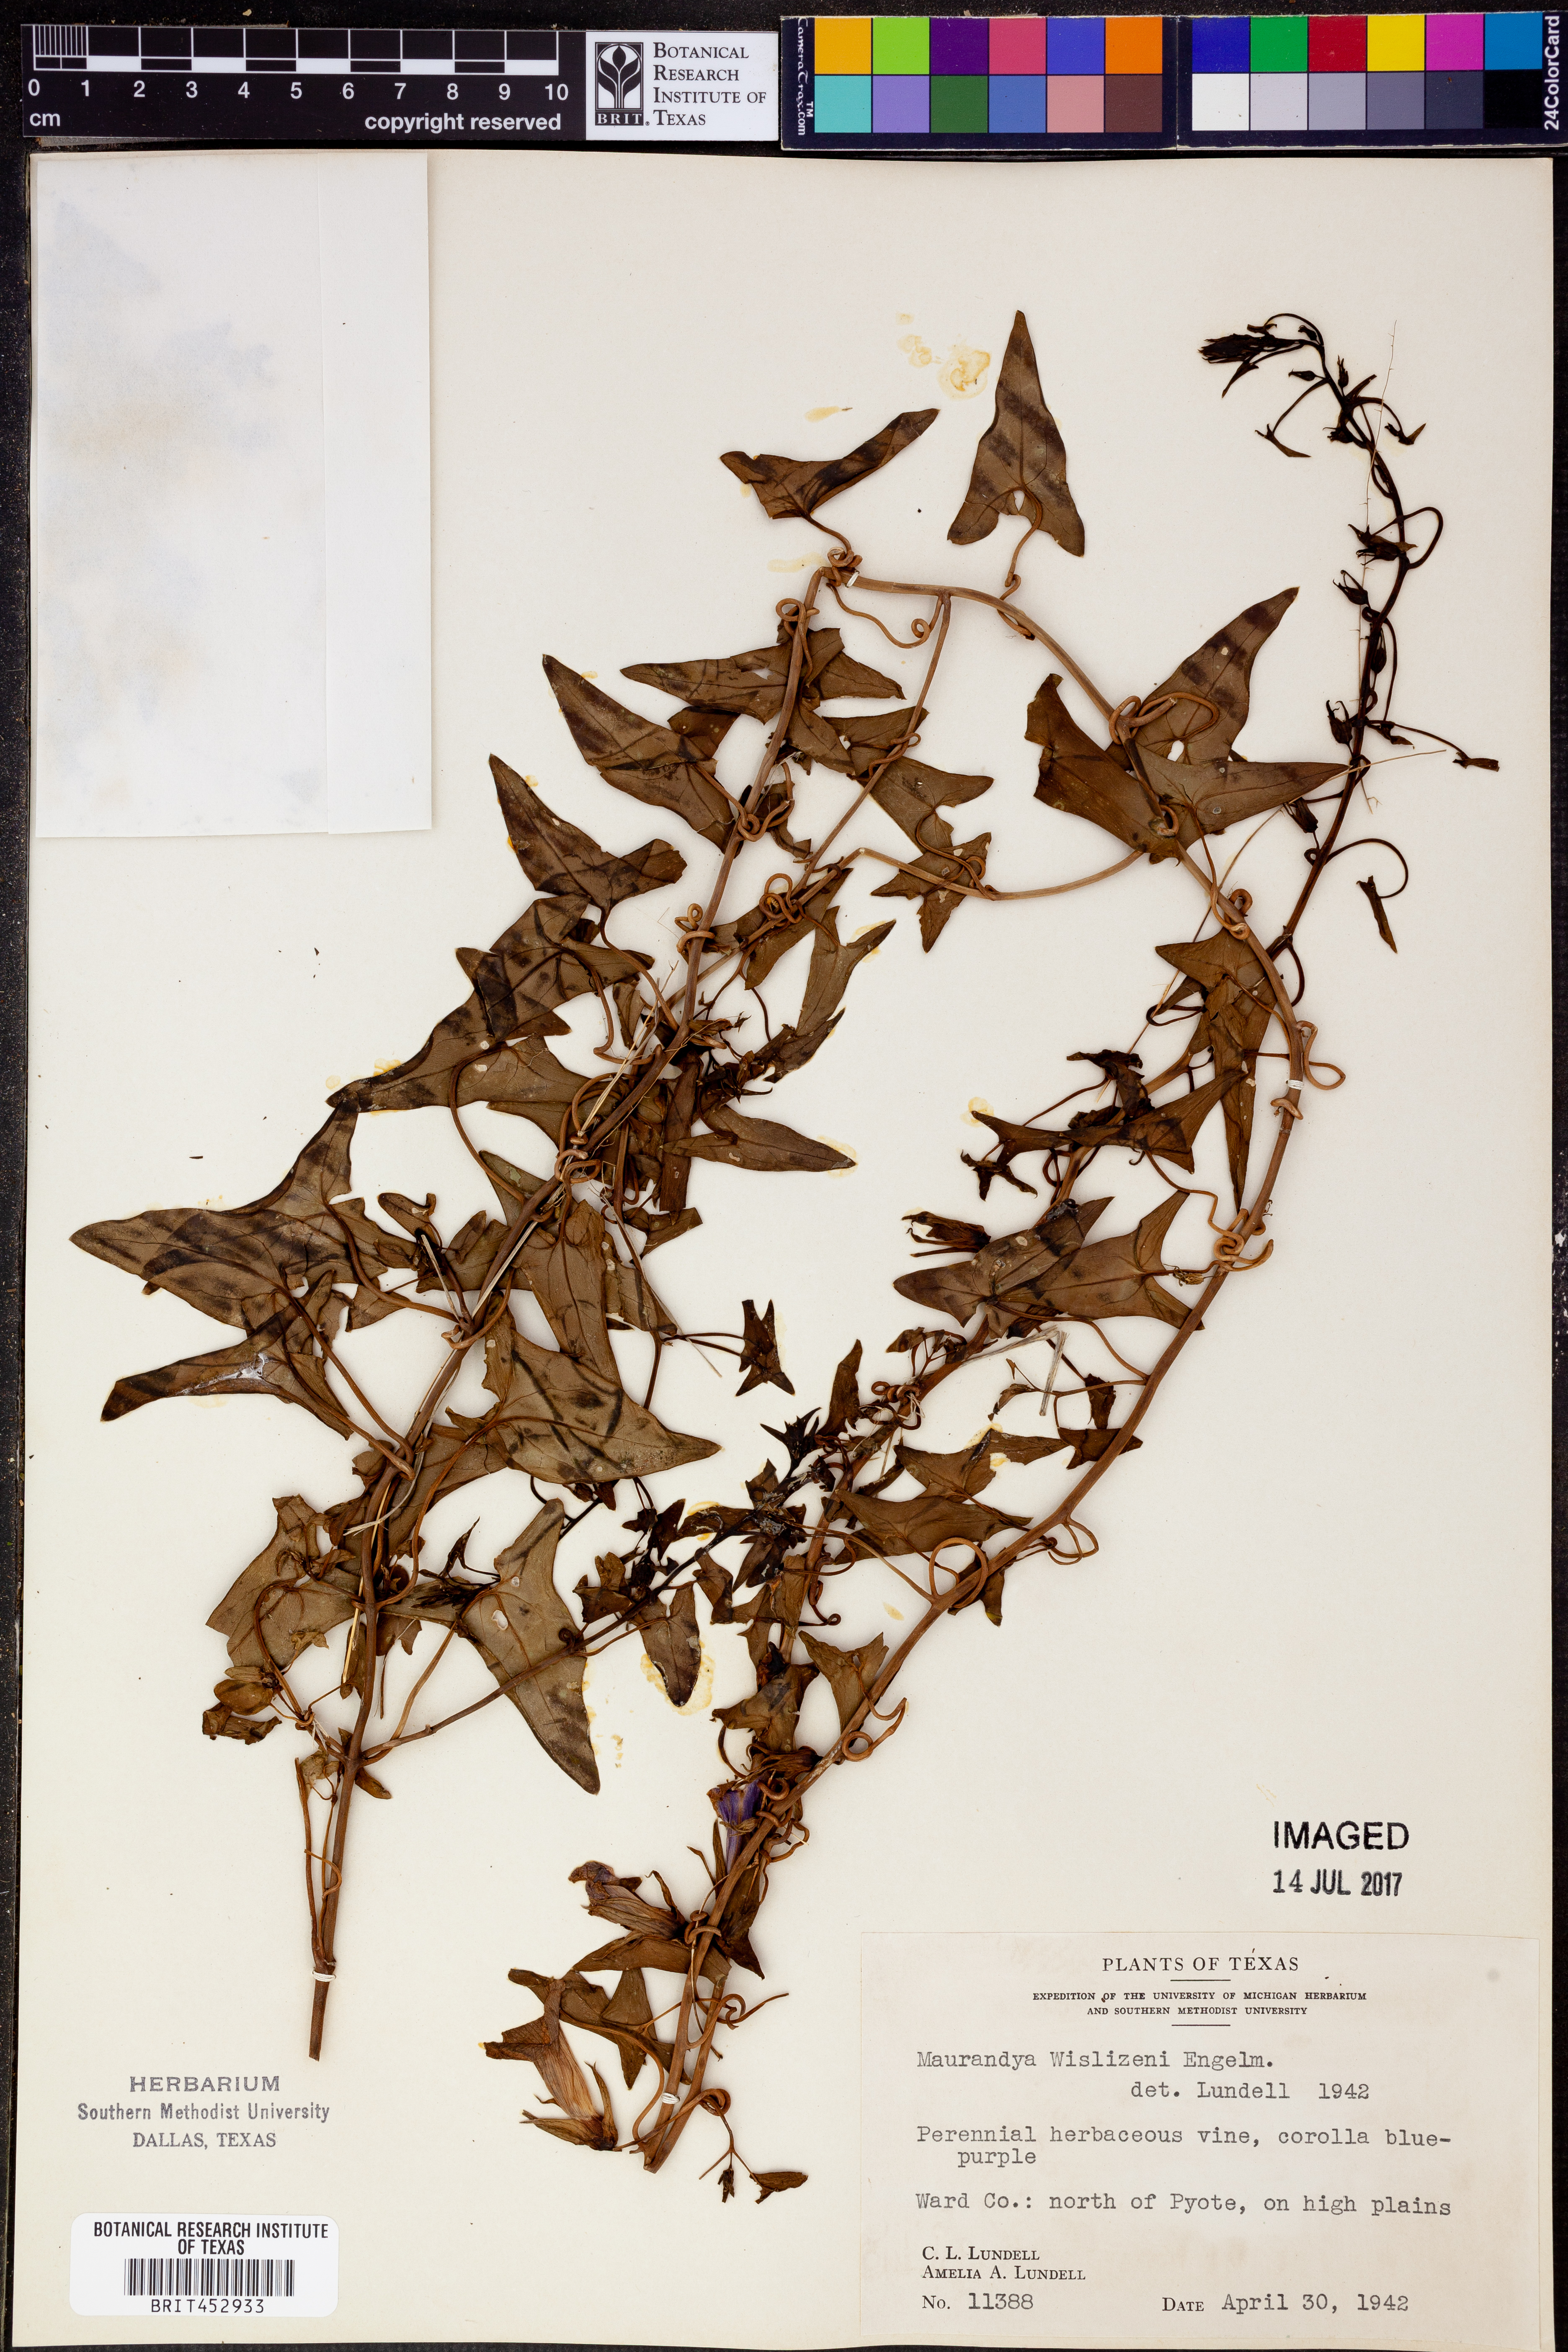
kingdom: Plantae
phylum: Tracheophyta
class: Magnoliopsida
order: Lamiales
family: Plantaginaceae
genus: Epixiphium
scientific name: Epixiphium wislizeni
